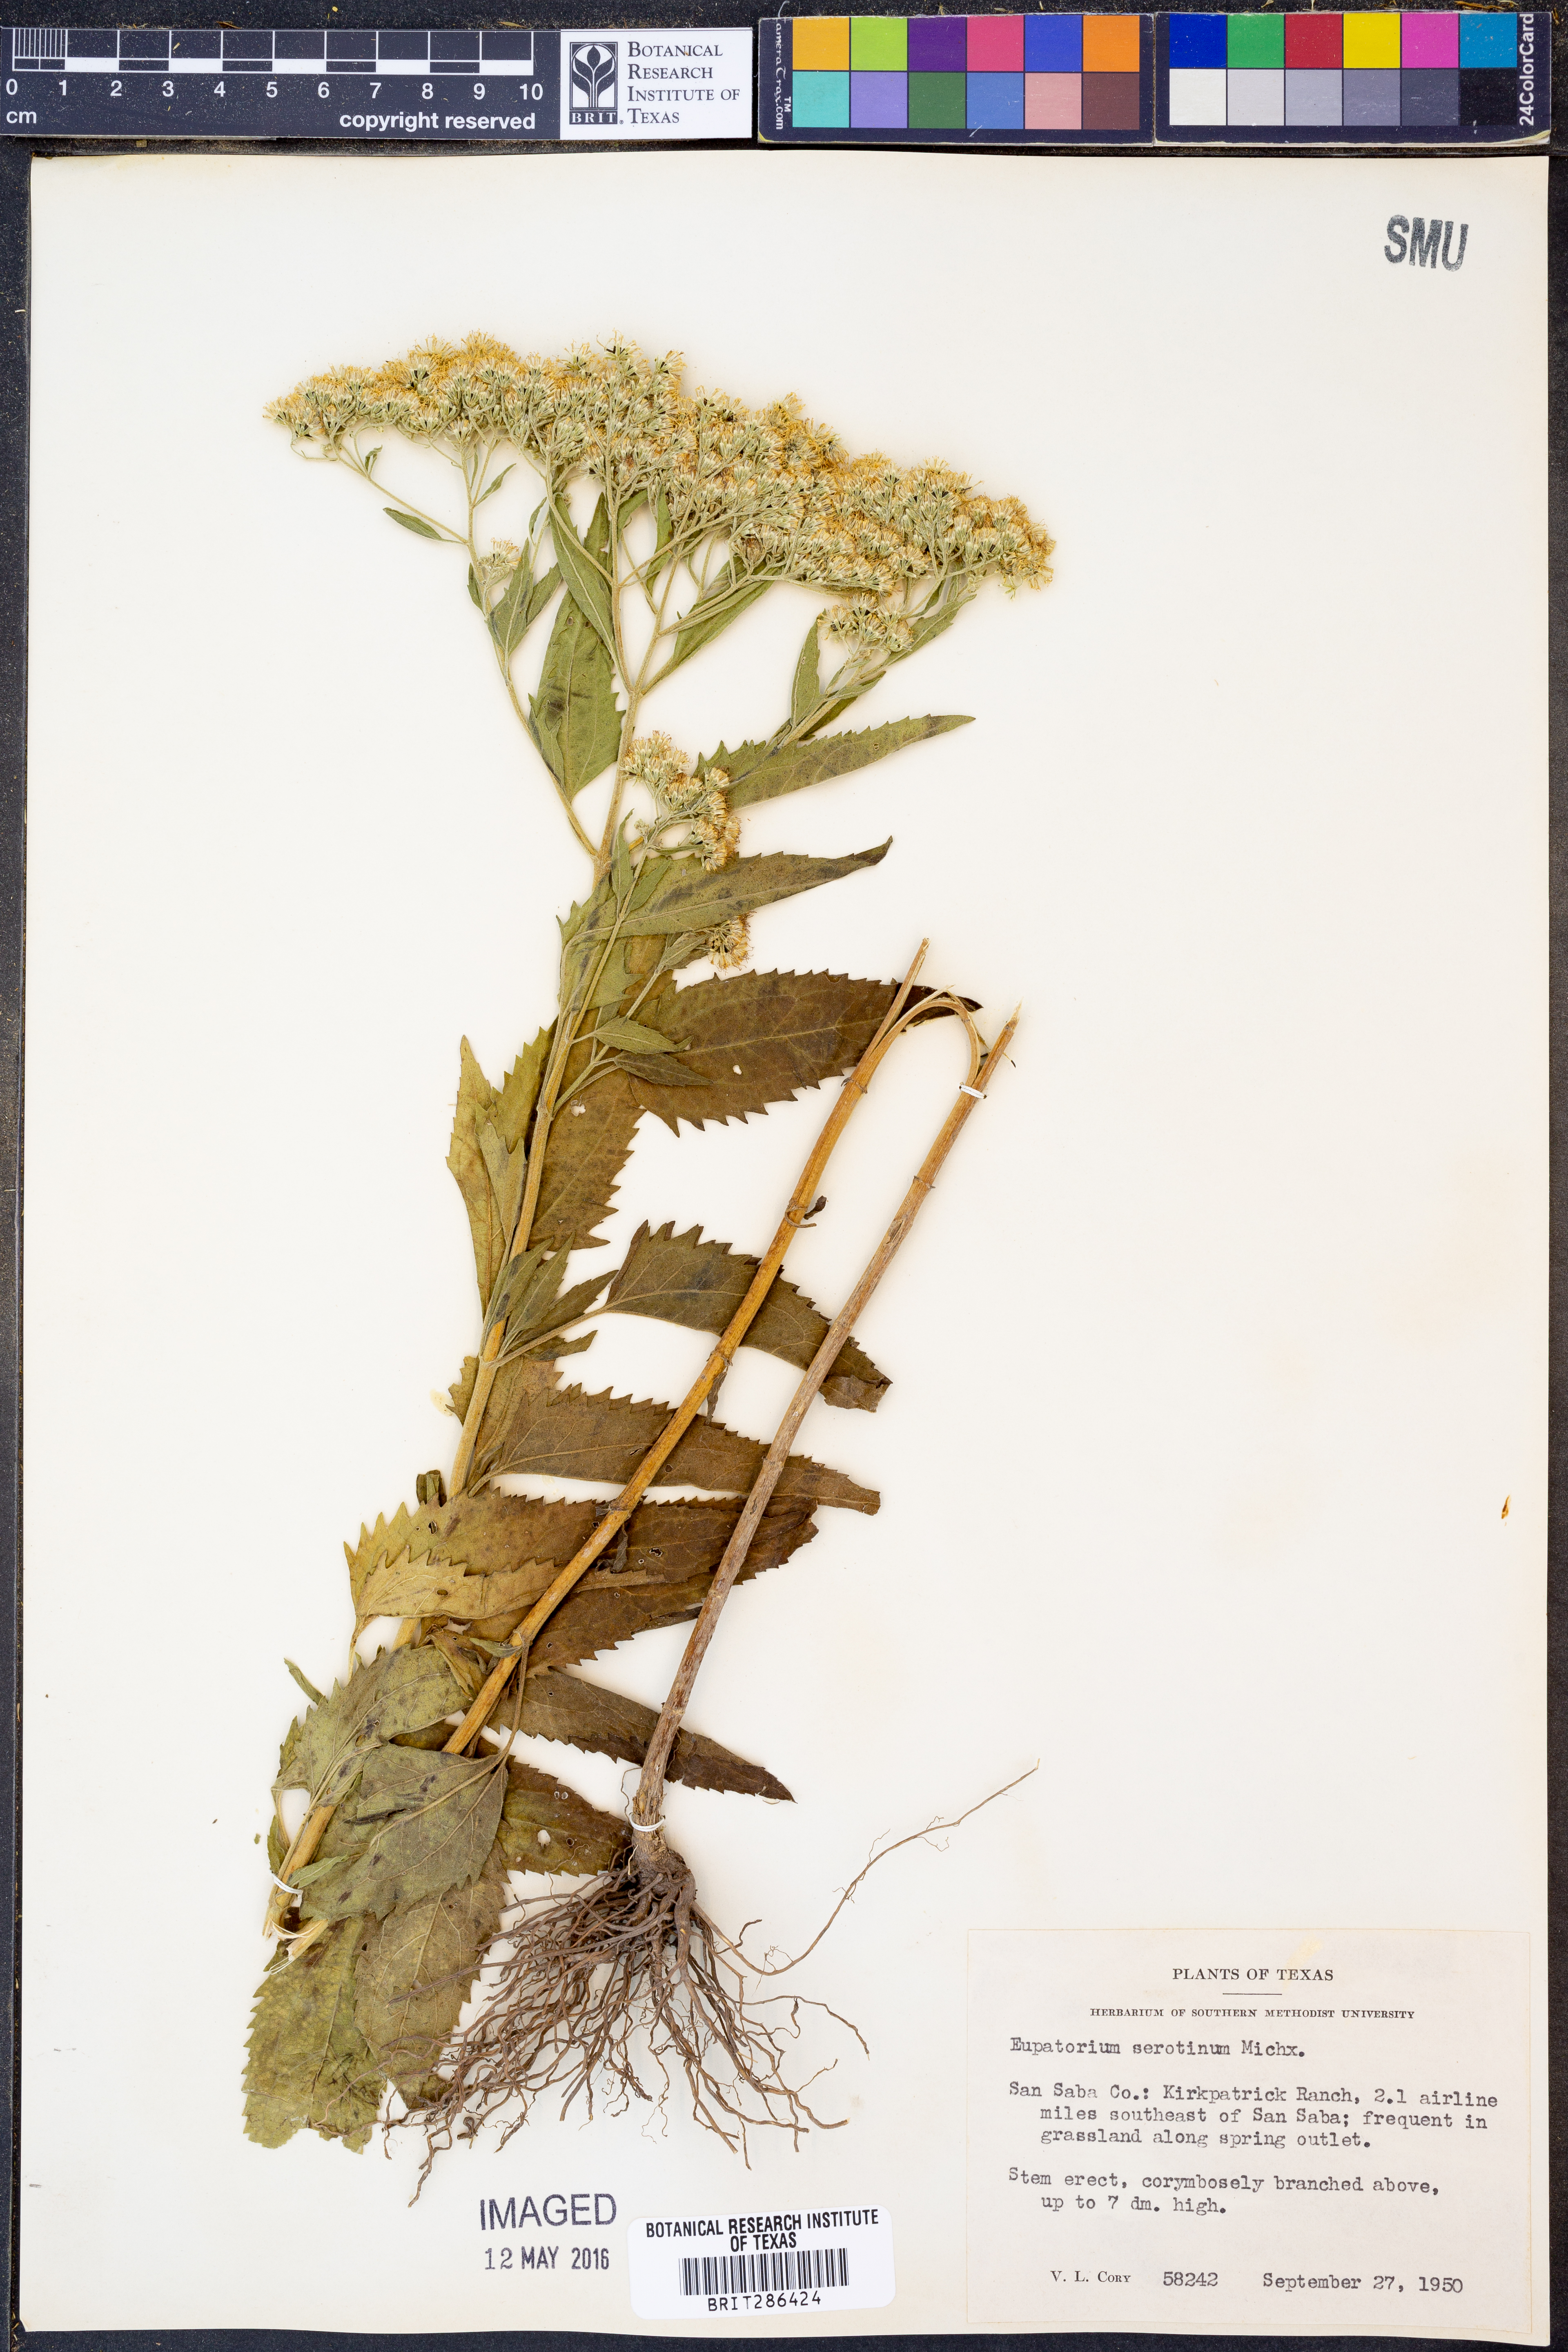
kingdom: Plantae
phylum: Tracheophyta
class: Magnoliopsida
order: Asterales
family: Asteraceae
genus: Eupatorium
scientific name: Eupatorium serotinum
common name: Late boneset
